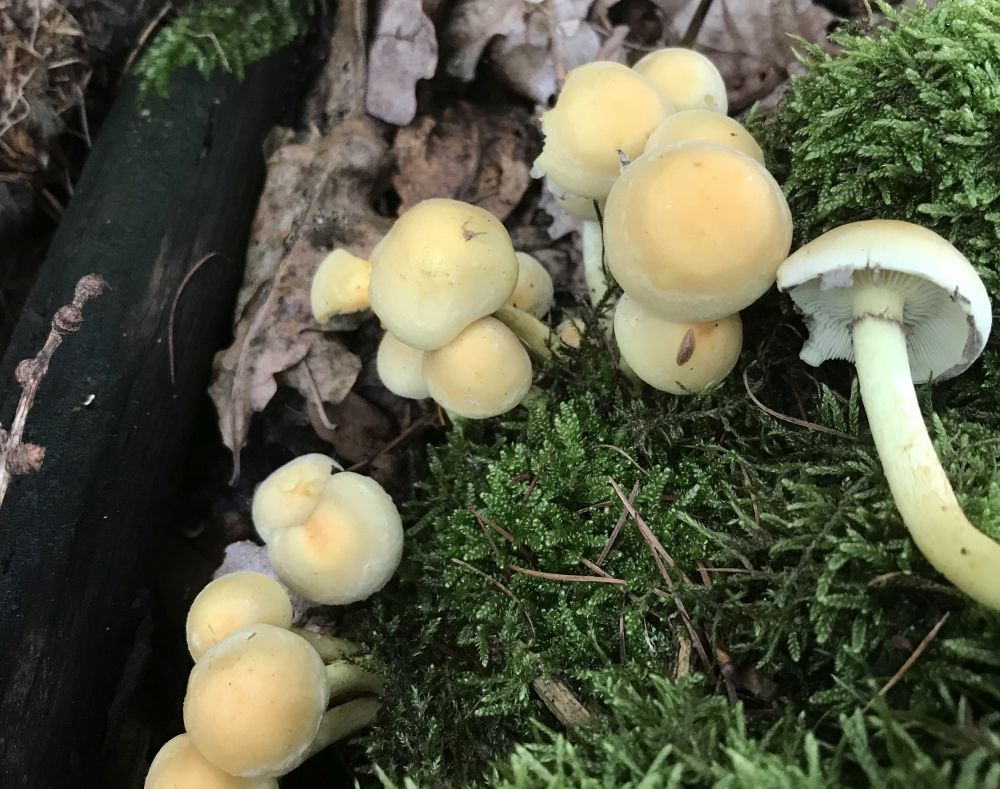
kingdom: Fungi
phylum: Basidiomycota
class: Agaricomycetes
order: Agaricales
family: Strophariaceae
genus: Hypholoma
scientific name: Hypholoma fasciculare
